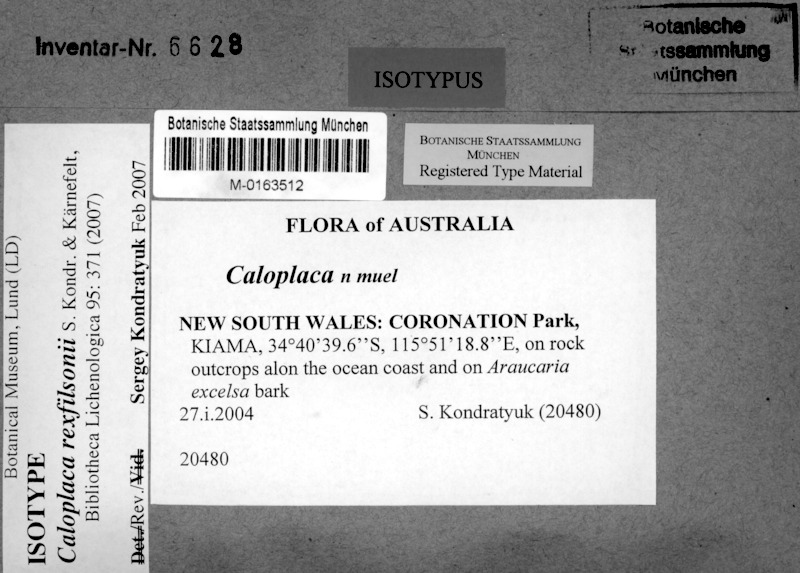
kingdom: Fungi
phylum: Ascomycota
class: Lecanoromycetes
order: Teloschistales
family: Teloschistaceae
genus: Filsoniana
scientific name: Filsoniana rexfilsonii
